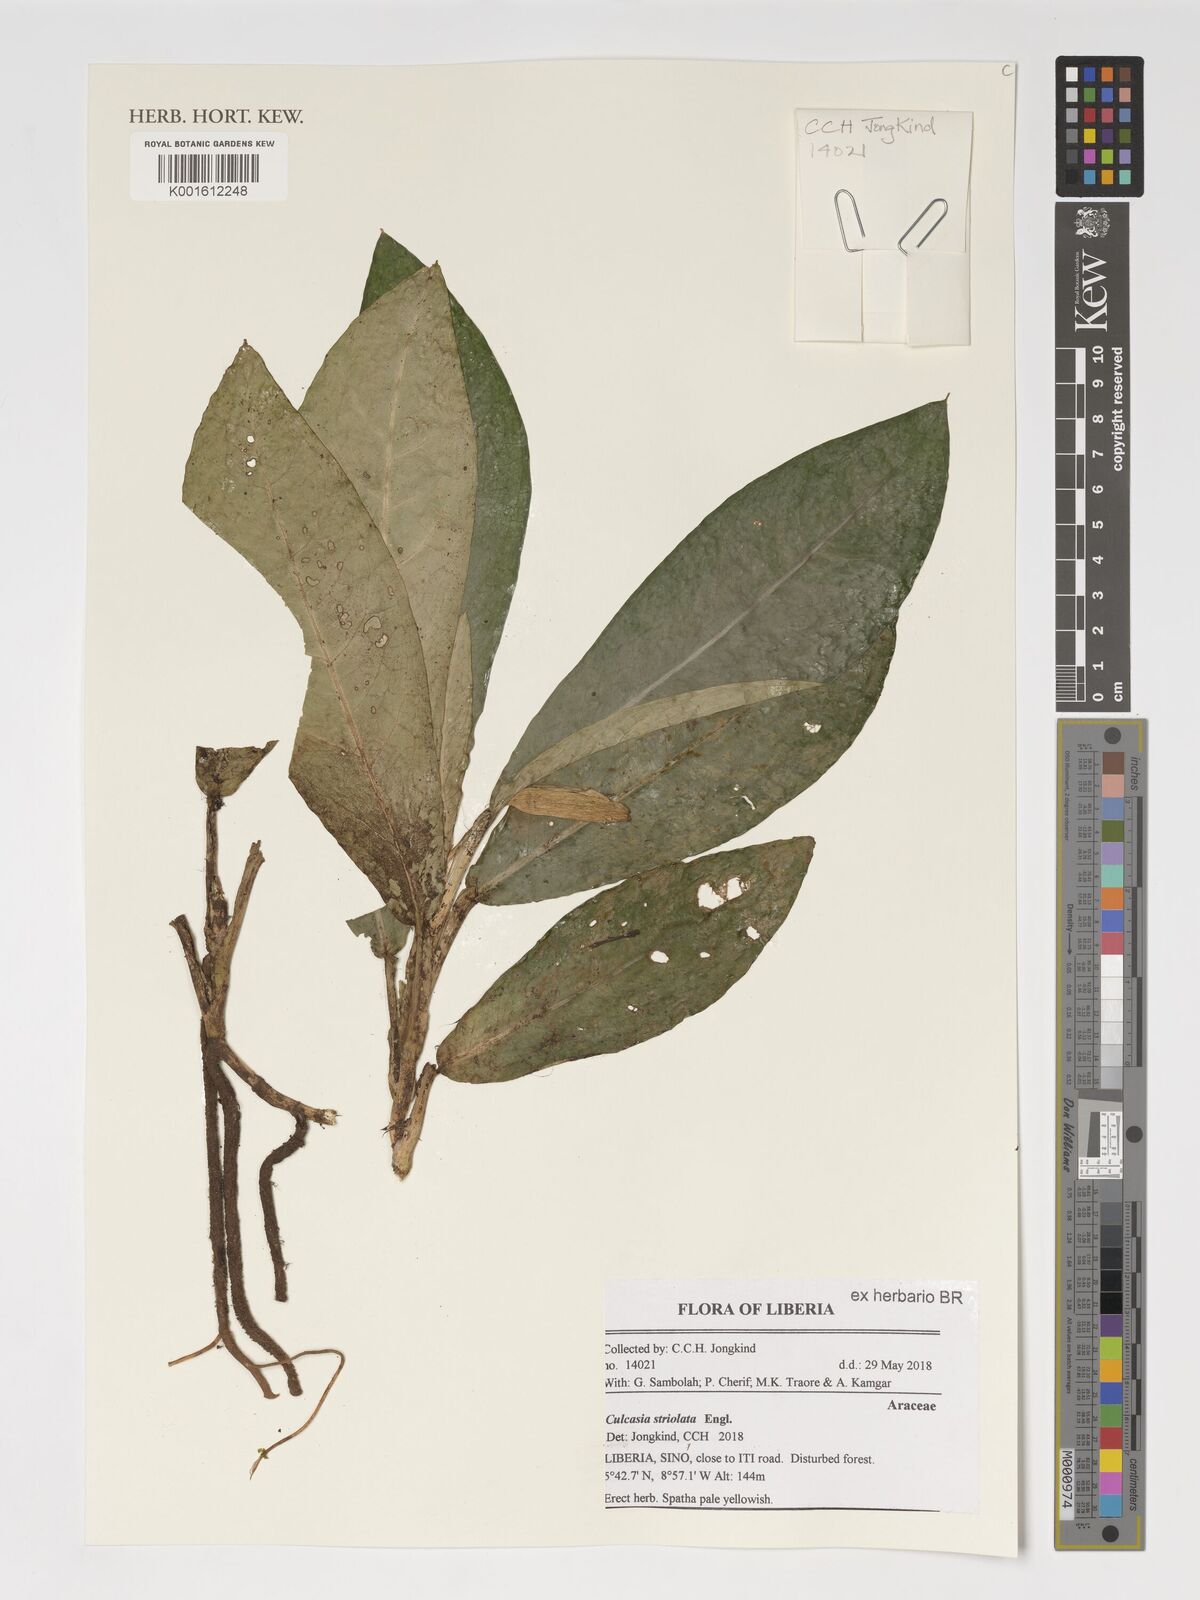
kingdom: Plantae
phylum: Tracheophyta
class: Liliopsida
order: Alismatales
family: Araceae
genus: Culcasia
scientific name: Culcasia striolata
